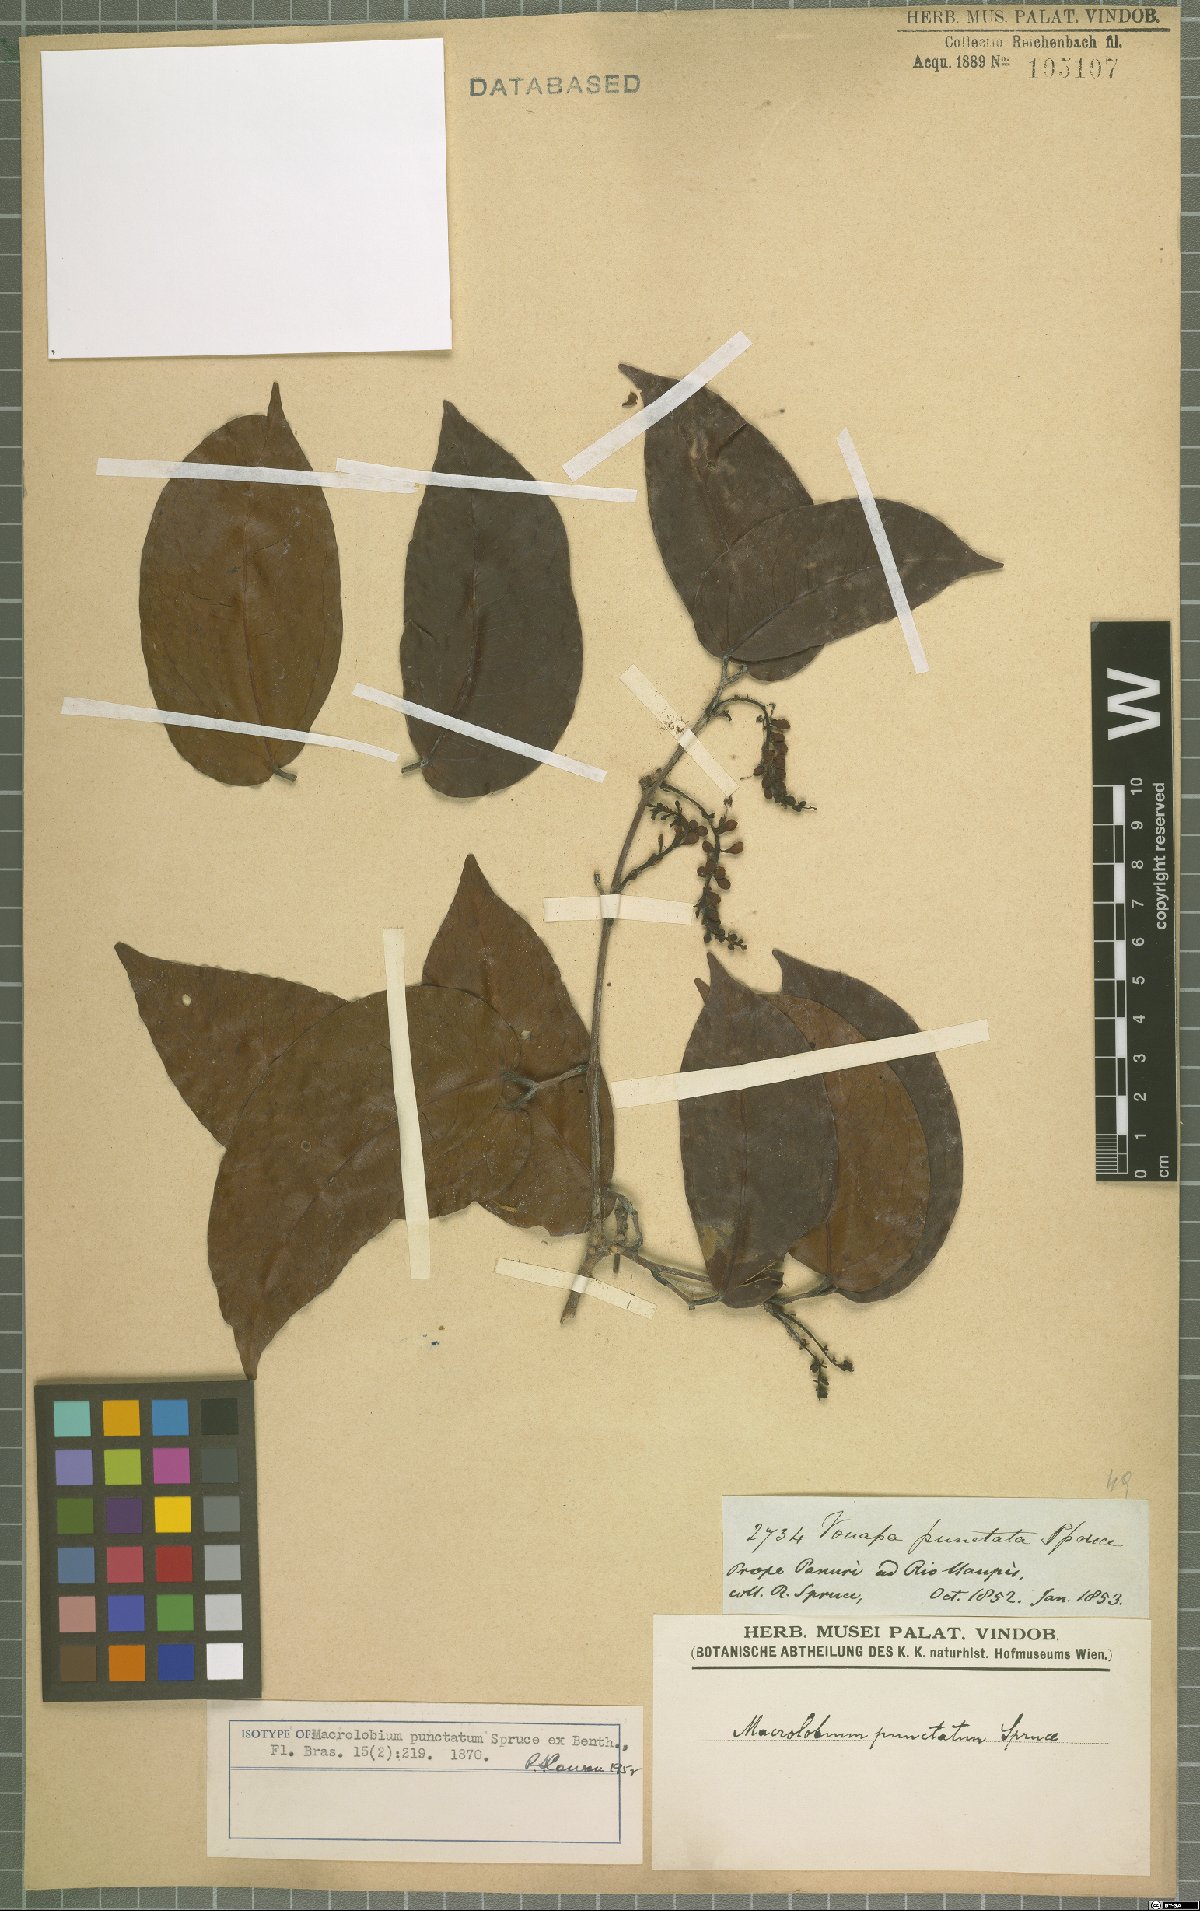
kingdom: Plantae
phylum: Tracheophyta
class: Magnoliopsida
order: Fabales
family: Fabaceae
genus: Macrolobium
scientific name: Macrolobium punctatum
